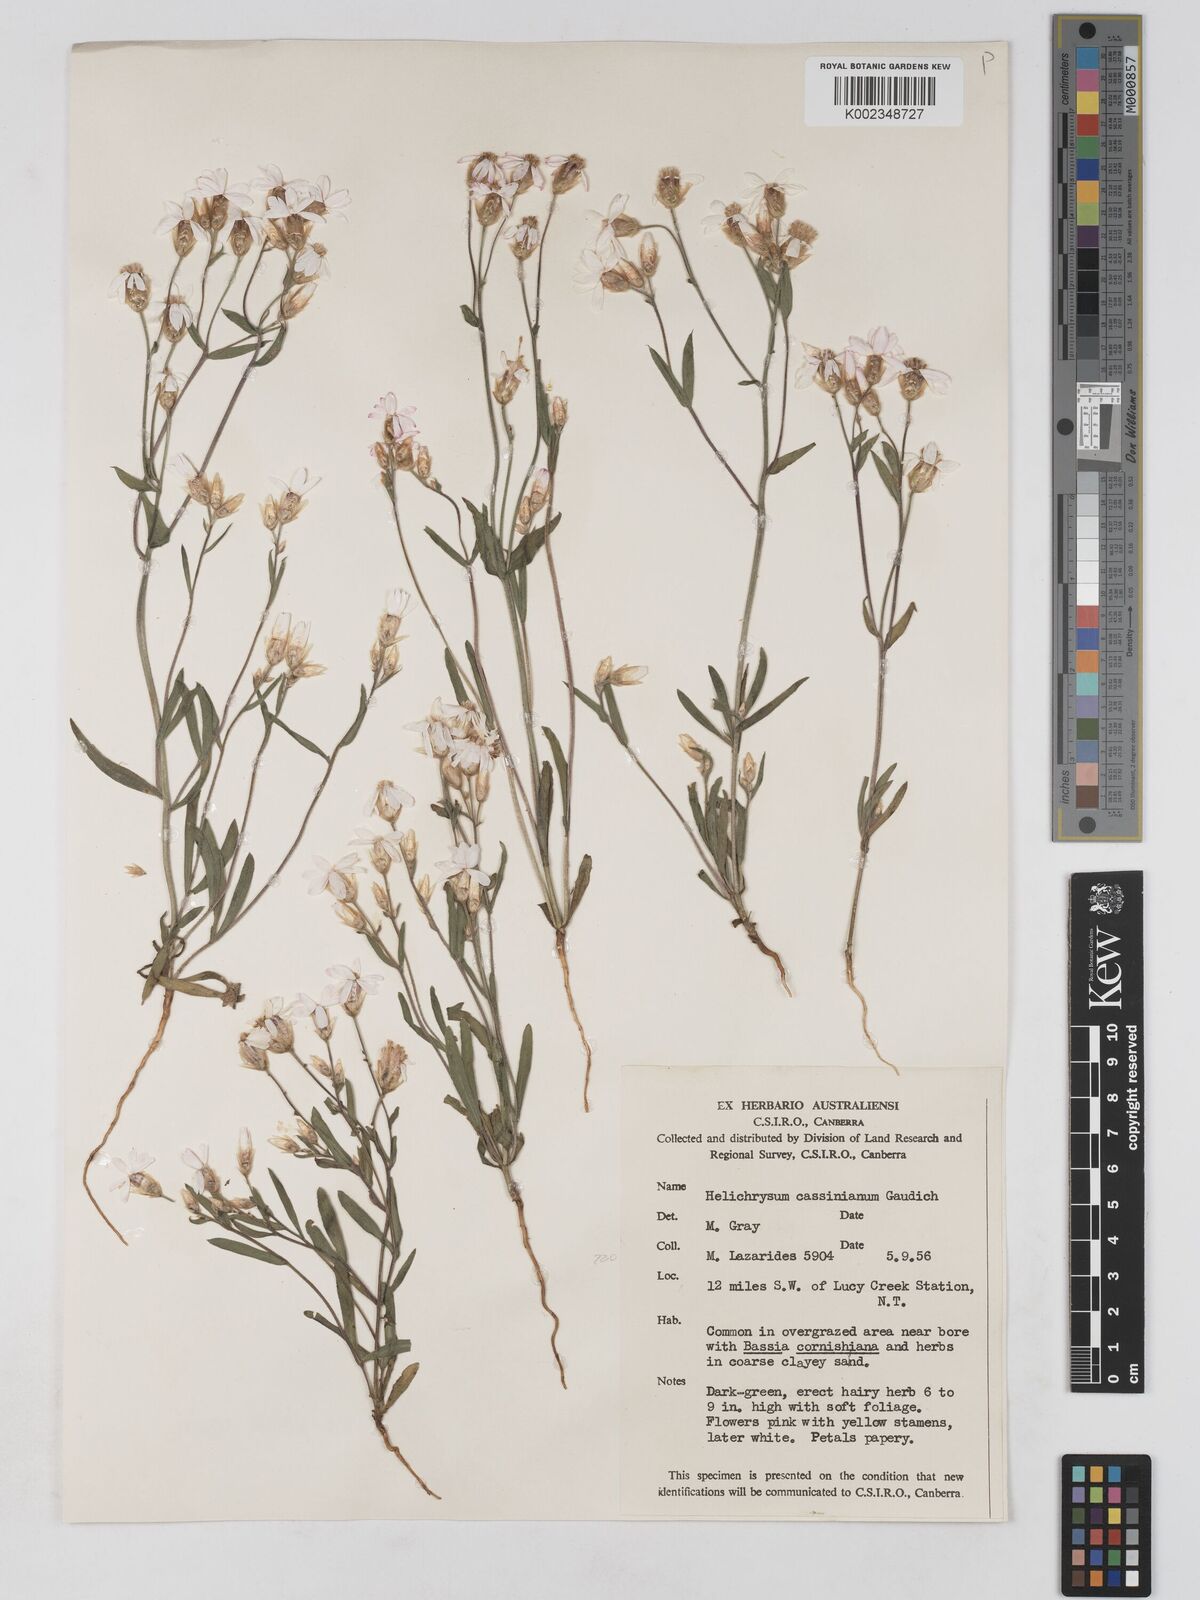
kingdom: Plantae
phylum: Tracheophyta
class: Magnoliopsida
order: Asterales
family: Asteraceae
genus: Schoenia
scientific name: Schoenia cassiniana
